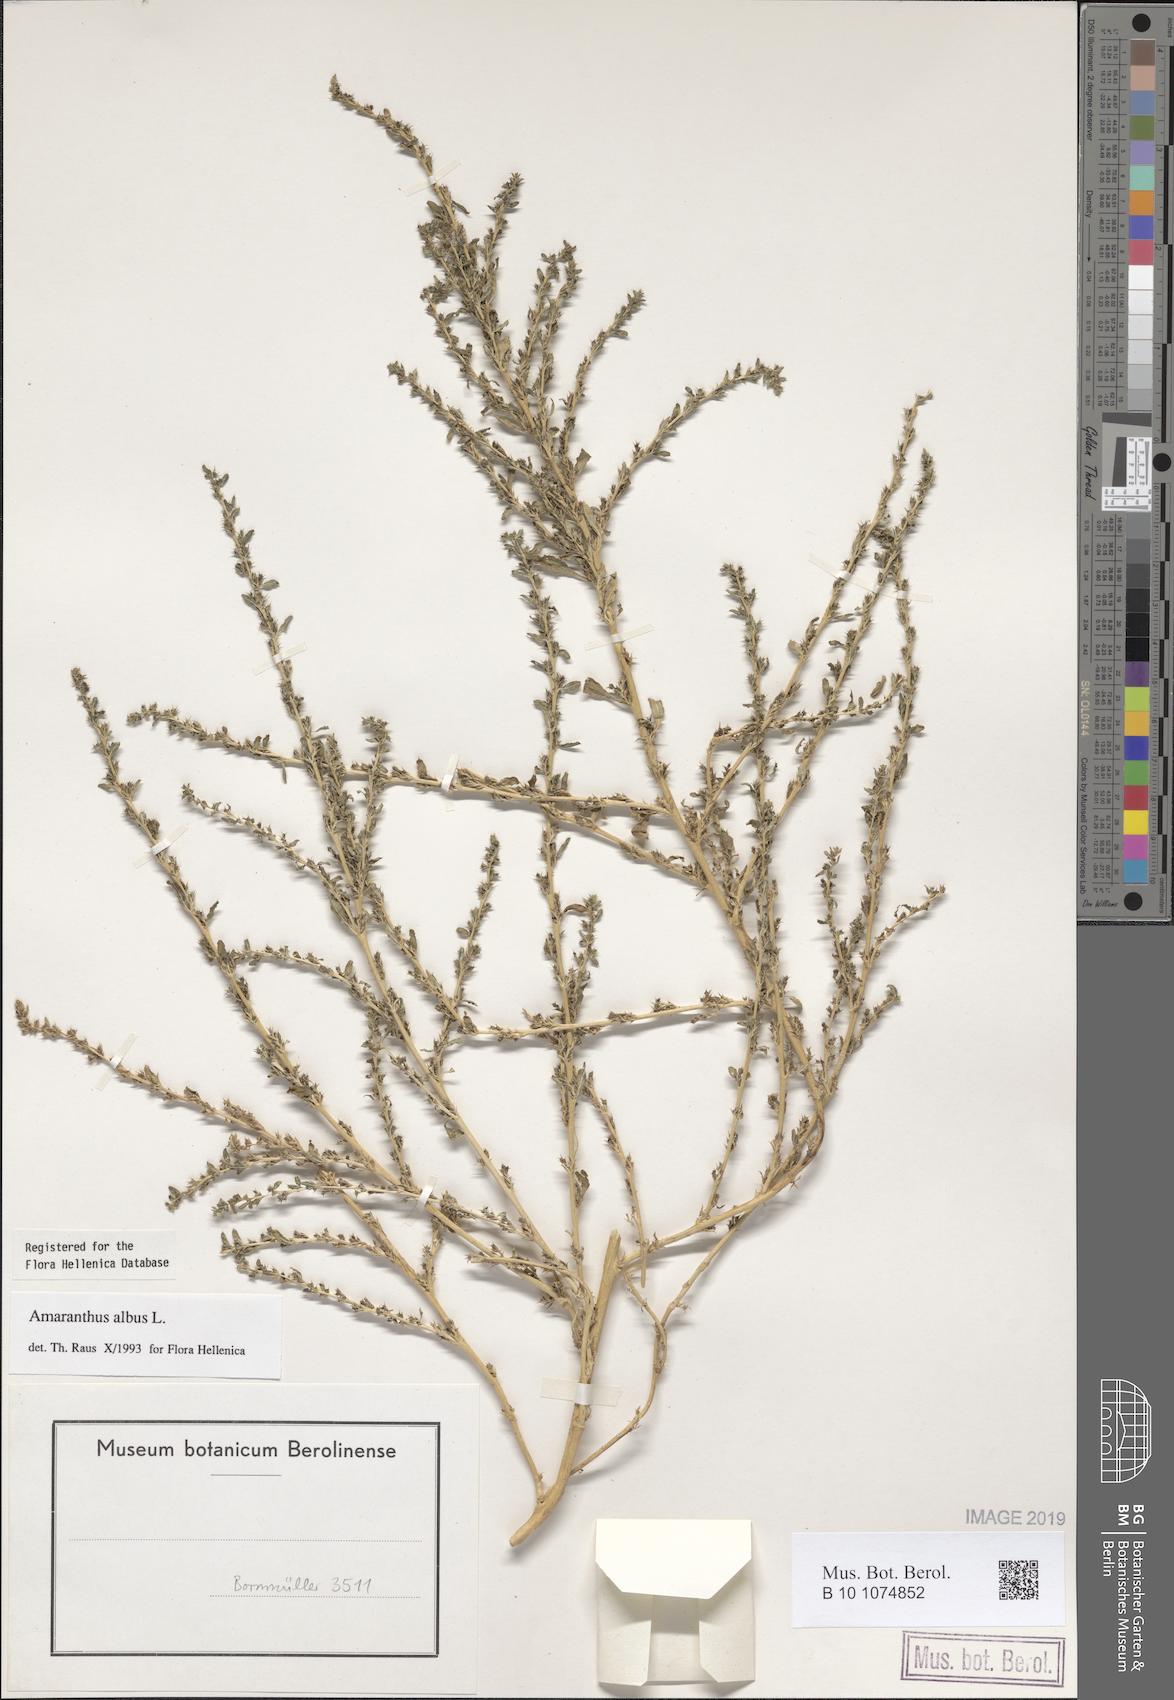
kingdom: Plantae
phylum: Tracheophyta
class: Magnoliopsida
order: Caryophyllales
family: Amaranthaceae
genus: Amaranthus
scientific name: Amaranthus albus
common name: White pigweed
